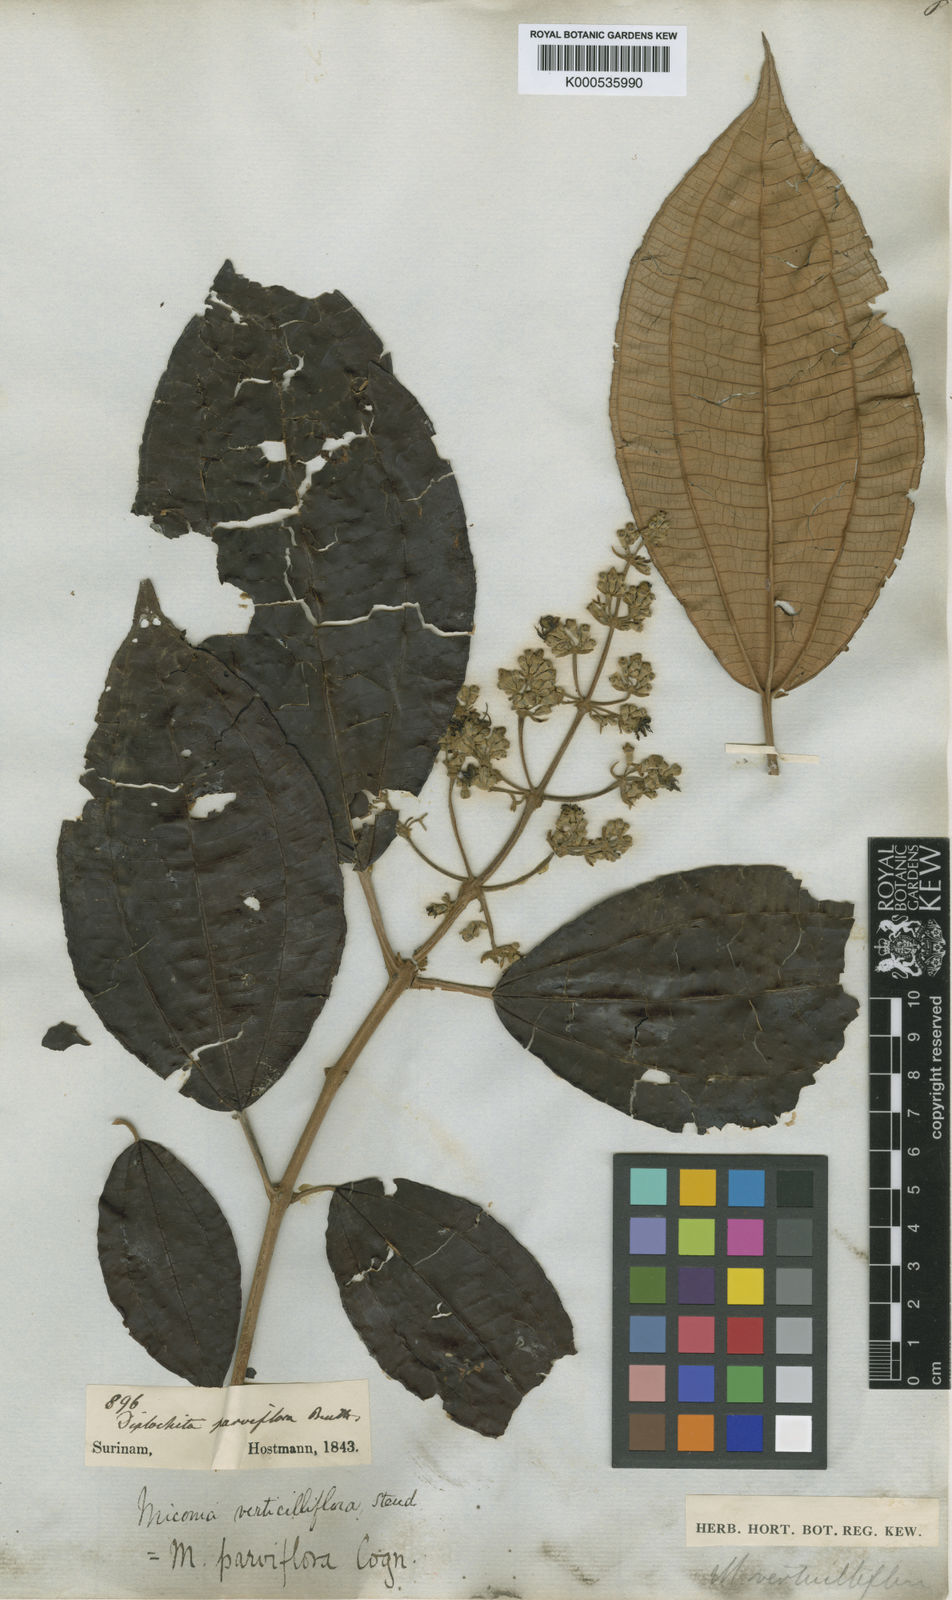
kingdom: Plantae
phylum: Tracheophyta
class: Magnoliopsida
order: Myrtales
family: Melastomataceae
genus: Miconia
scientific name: Miconia pubipetala
